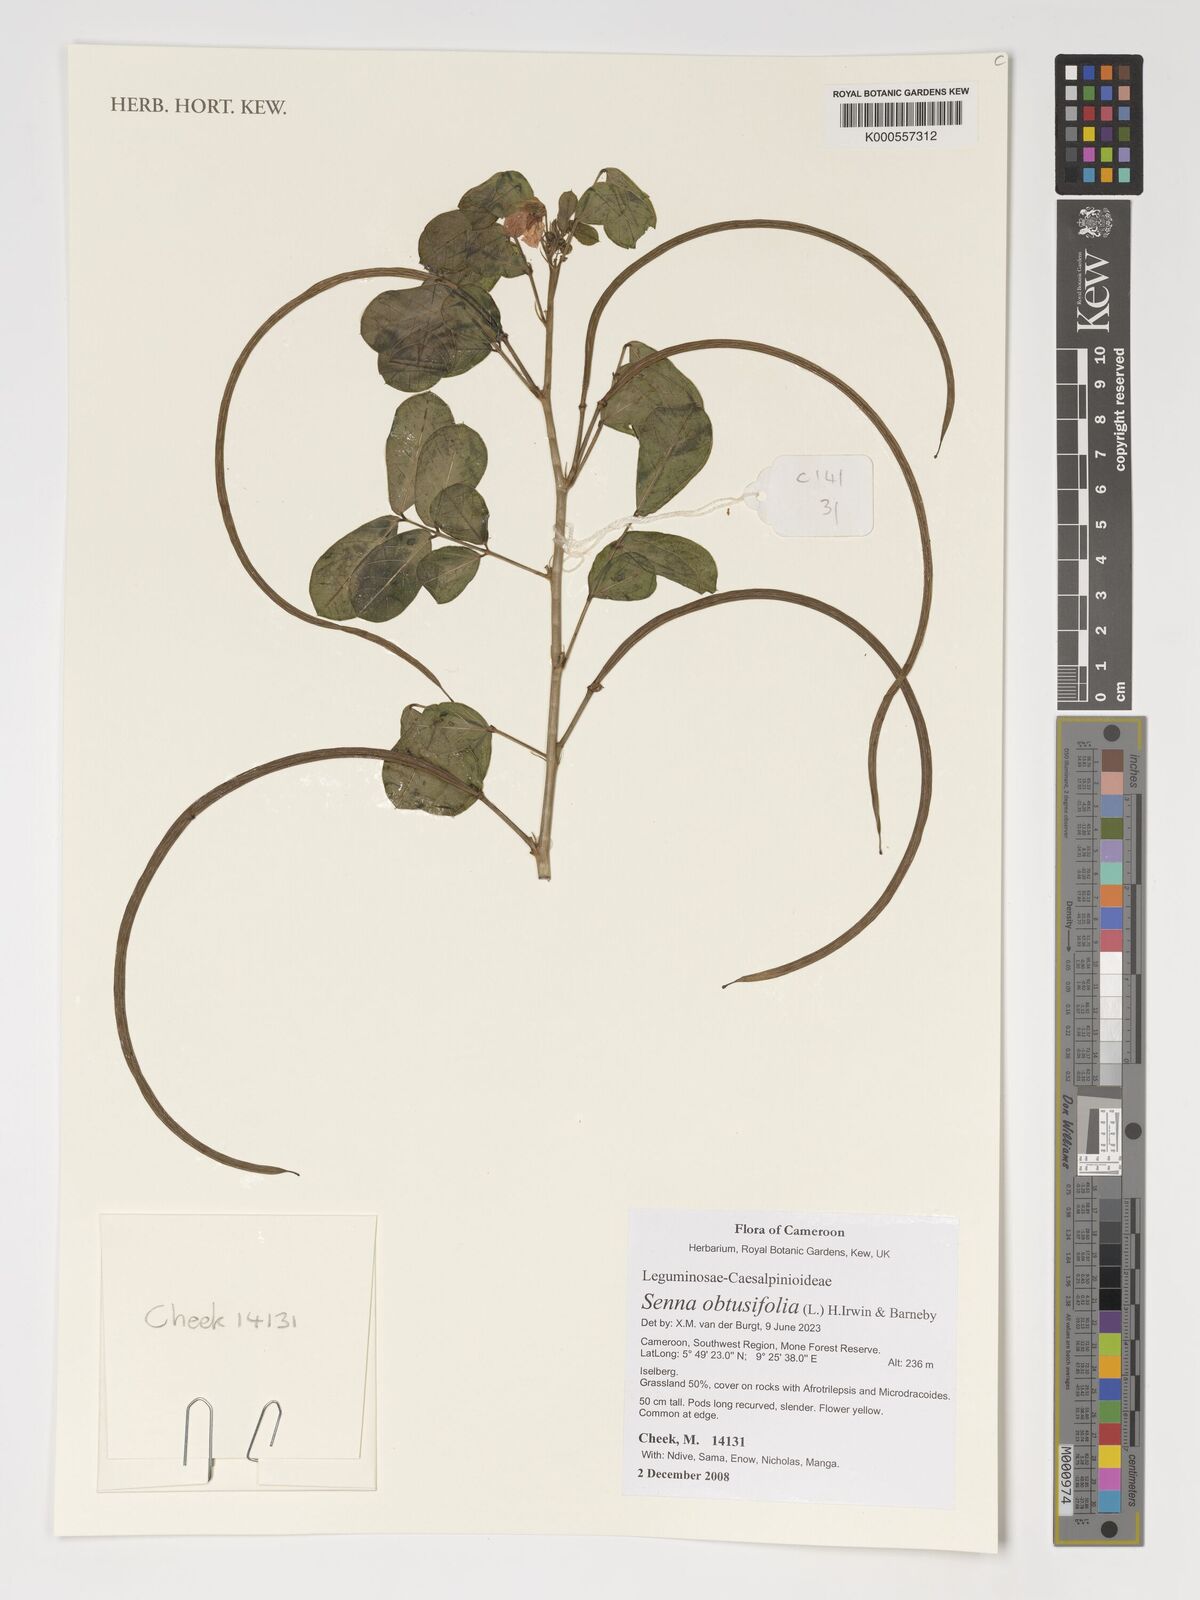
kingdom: Plantae
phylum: Tracheophyta
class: Magnoliopsida
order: Fabales
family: Fabaceae
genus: Senna
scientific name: Senna obtusifolia
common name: Java-bean
